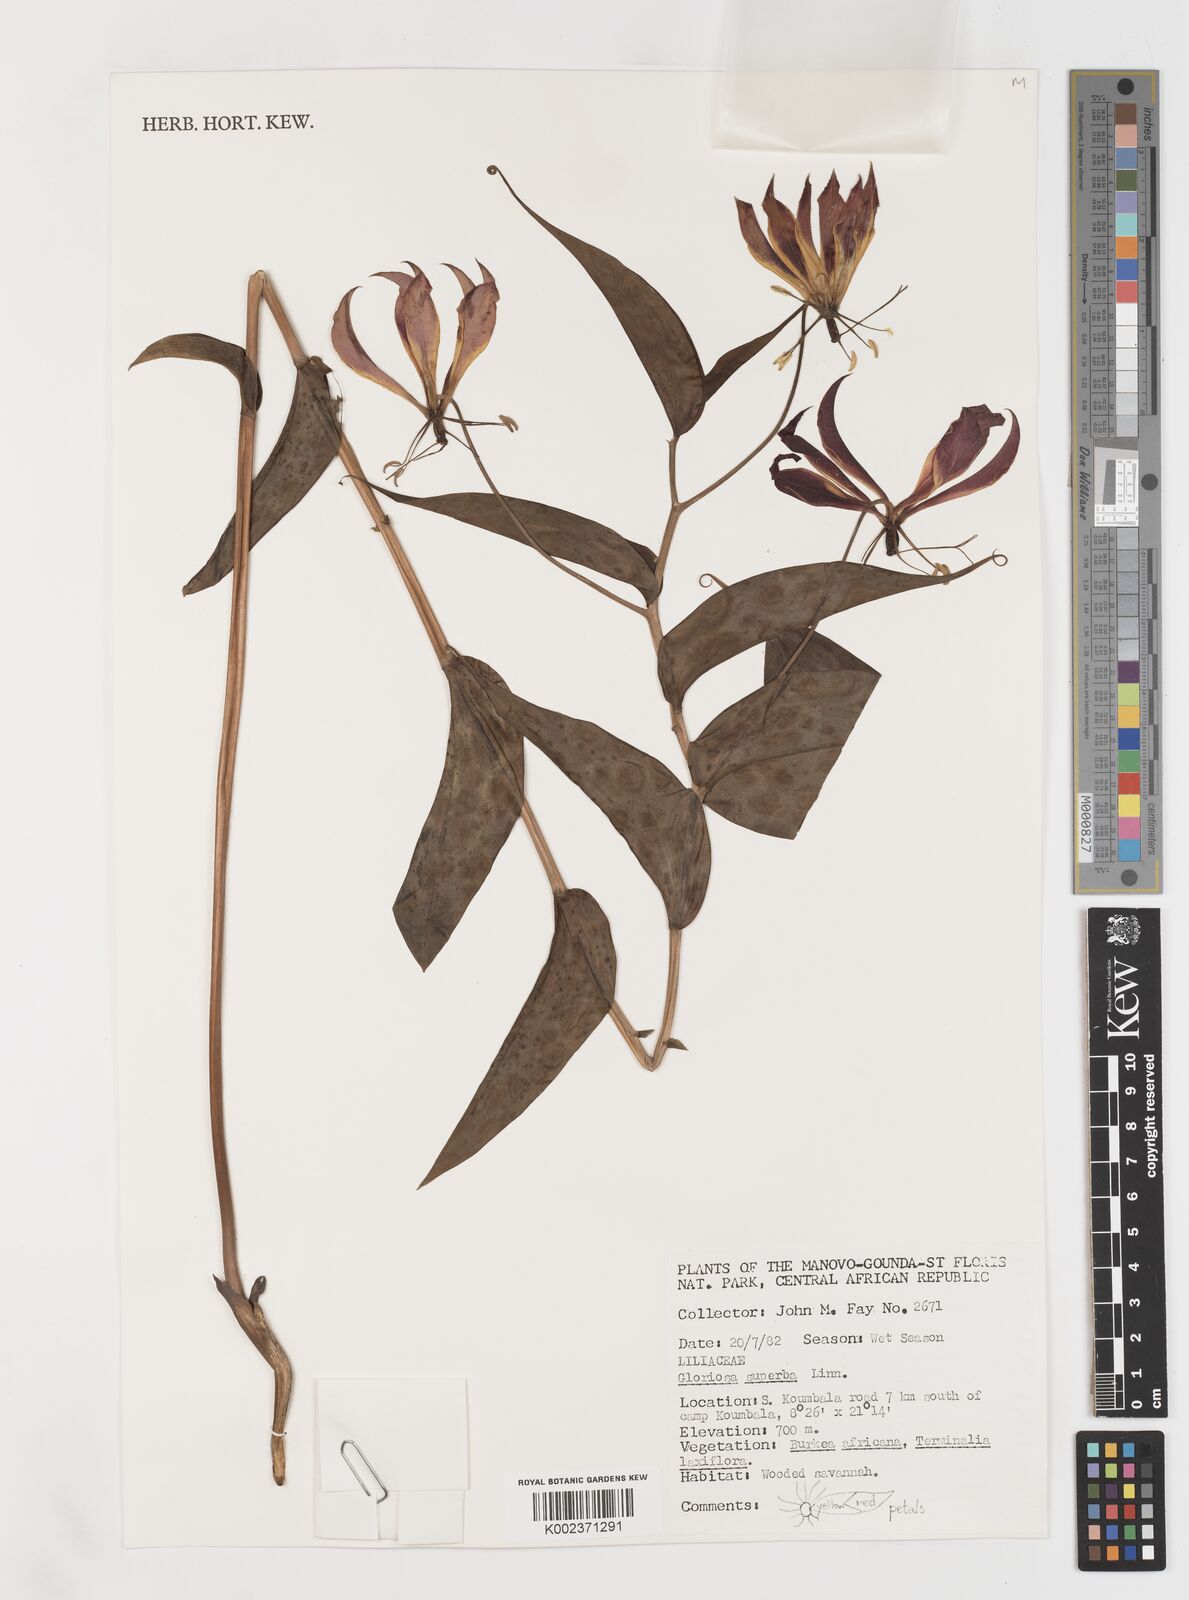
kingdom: Plantae
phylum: Tracheophyta
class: Liliopsida
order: Liliales
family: Colchicaceae
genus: Gloriosa
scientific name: Gloriosa simplex
